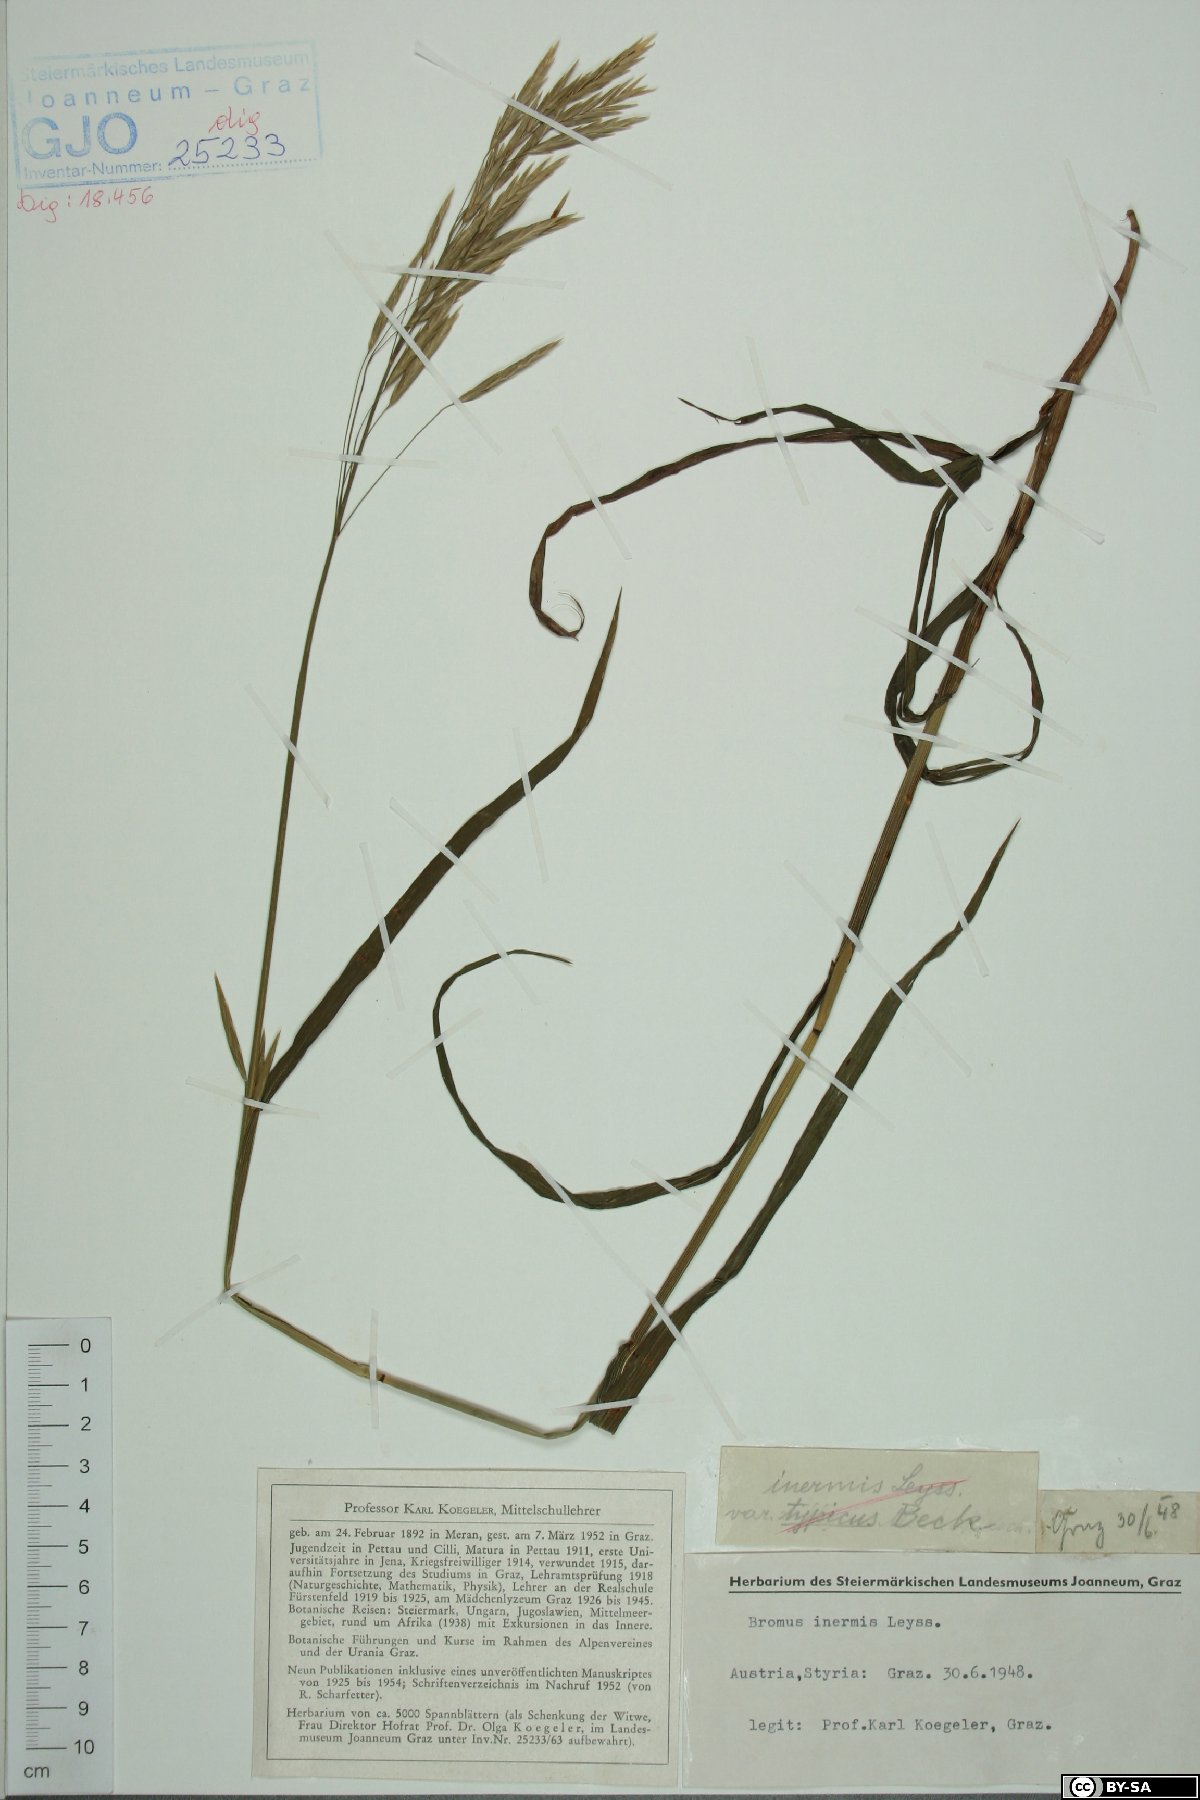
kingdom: Plantae
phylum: Tracheophyta
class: Liliopsida
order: Poales
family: Poaceae
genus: Bromus
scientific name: Bromus inermis
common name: Smooth brome
